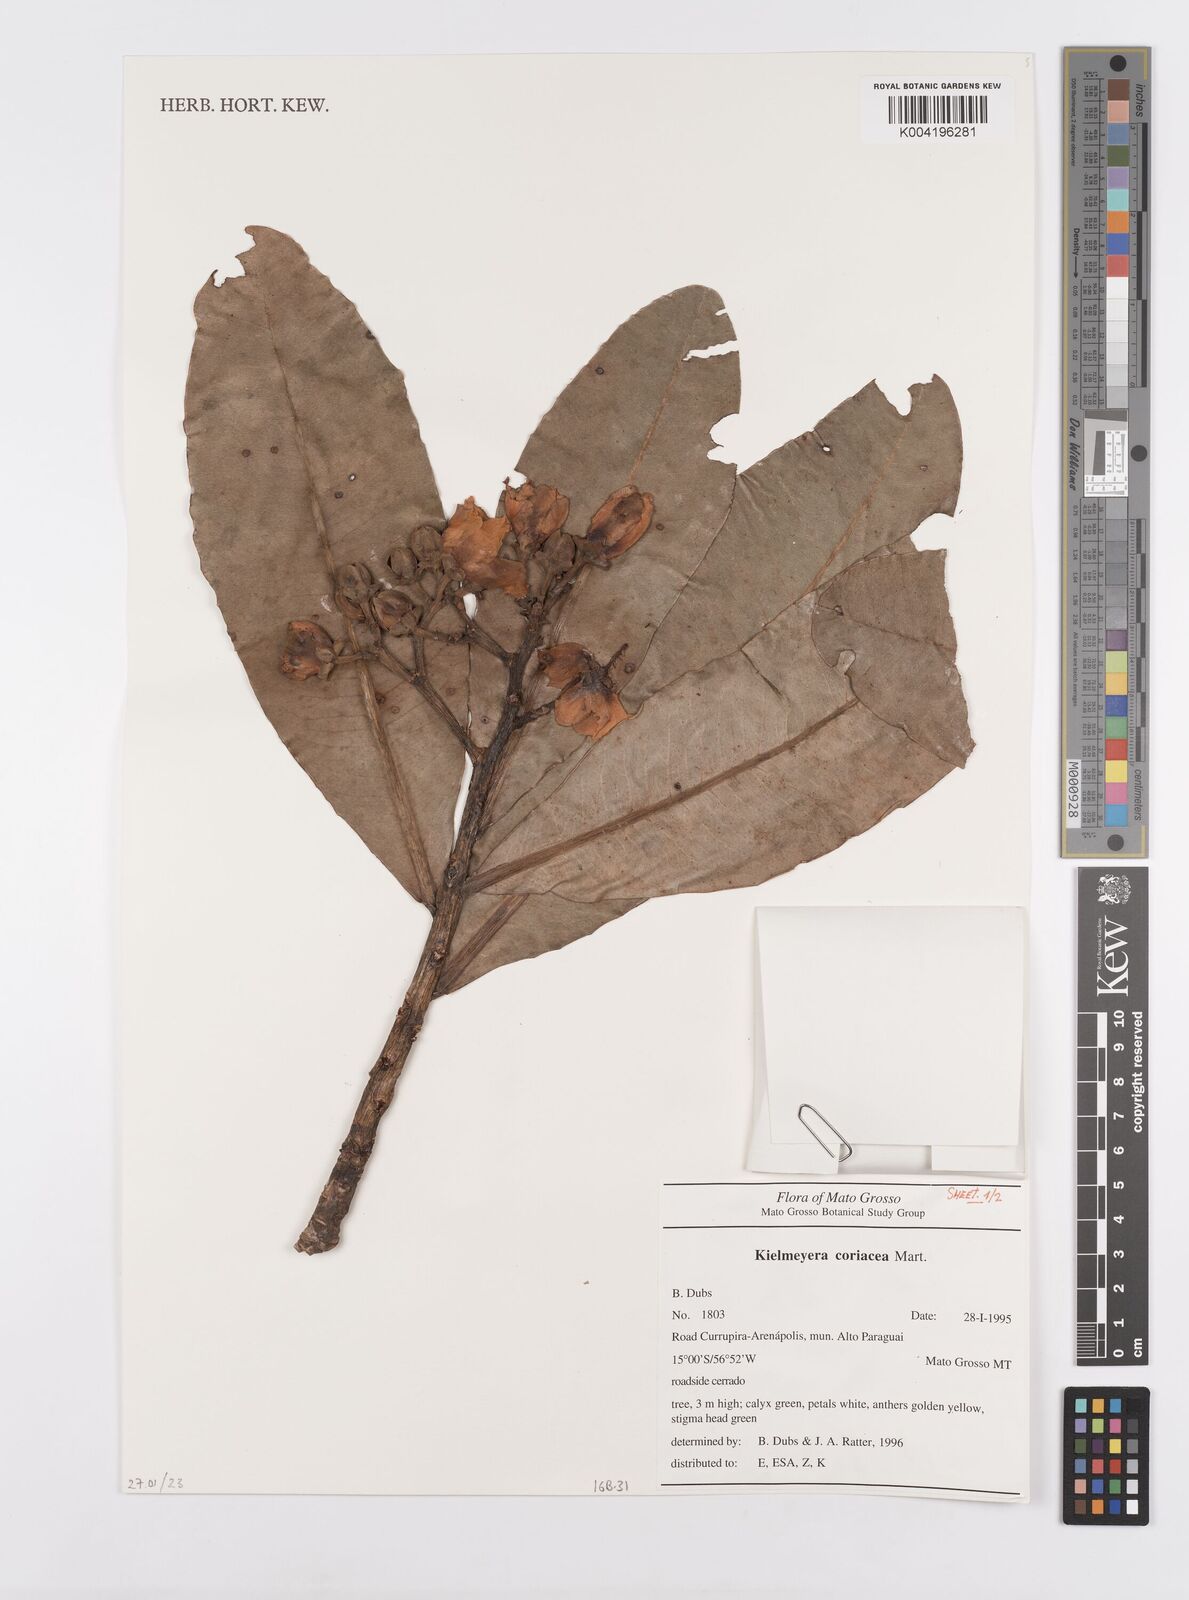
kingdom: Plantae
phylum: Tracheophyta
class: Magnoliopsida
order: Malpighiales
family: Calophyllaceae
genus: Kielmeyera
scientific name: Kielmeyera coriacea
